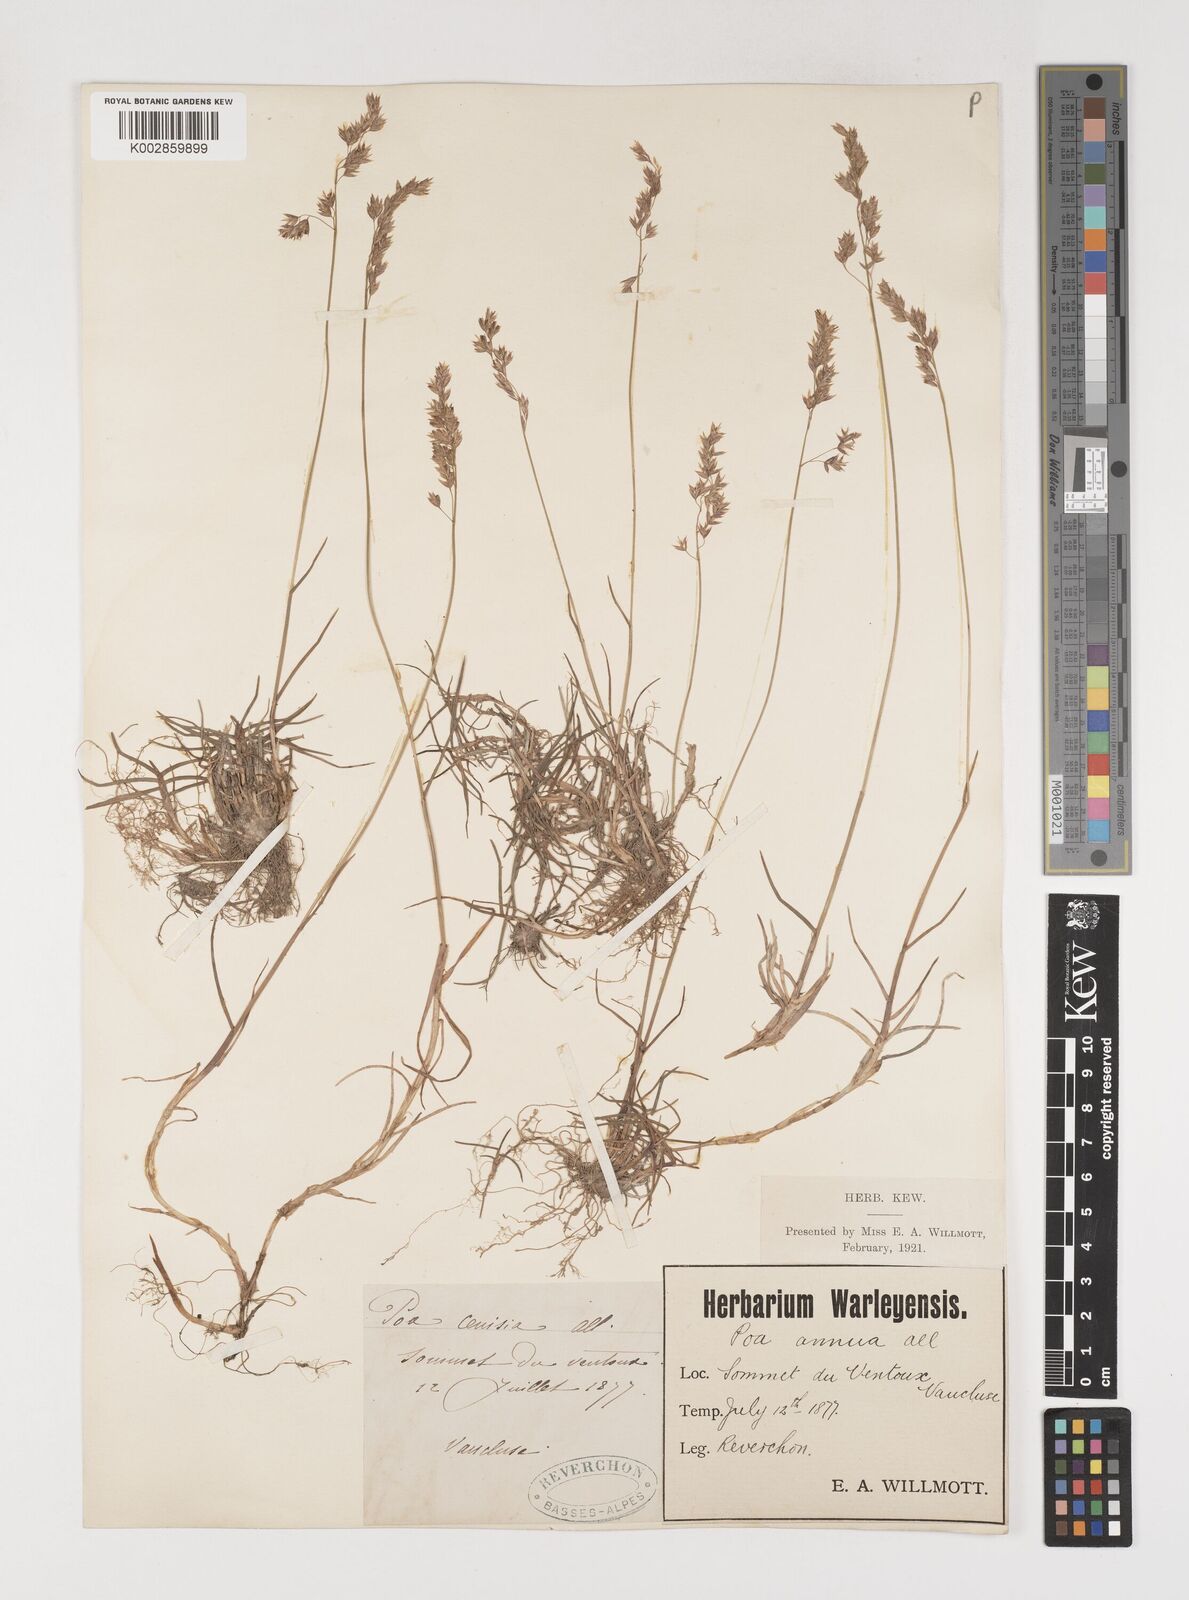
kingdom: Plantae
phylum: Tracheophyta
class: Liliopsida
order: Poales
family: Poaceae
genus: Poa
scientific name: Poa annua
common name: Annual bluegrass
